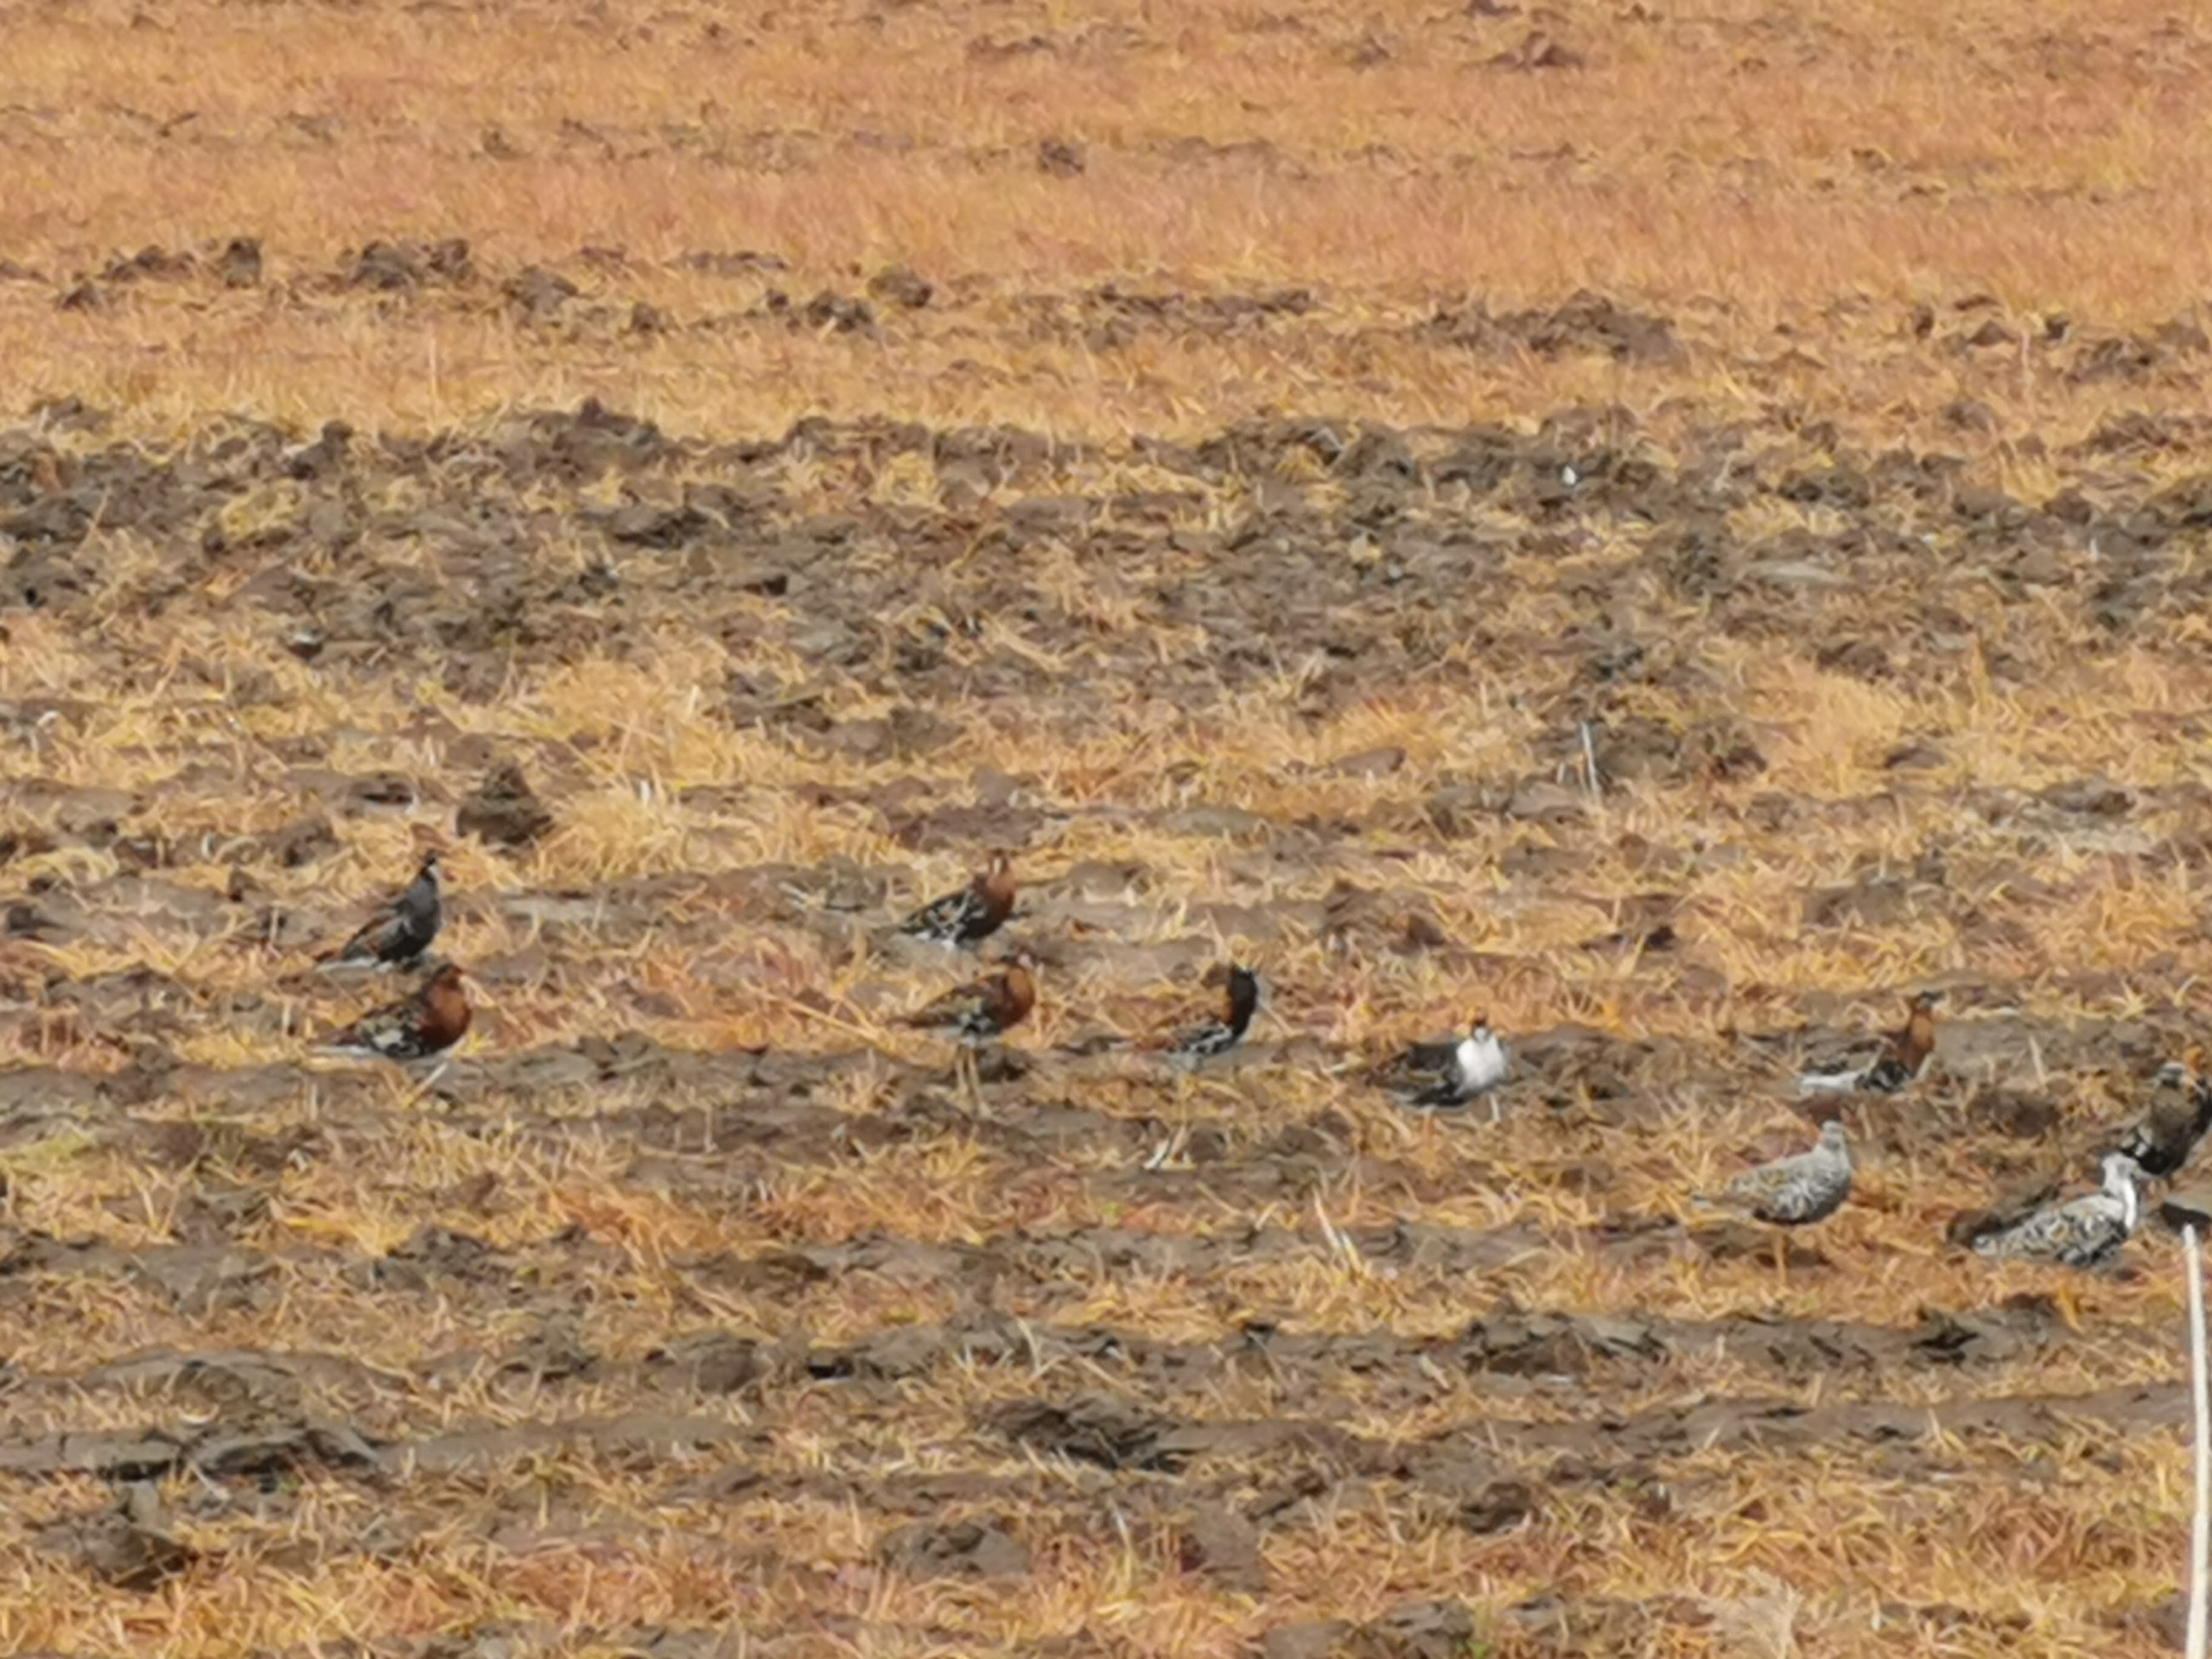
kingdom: Animalia
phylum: Chordata
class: Aves
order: Charadriiformes
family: Scolopacidae
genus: Calidris
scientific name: Calidris pugnax
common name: Brushane
